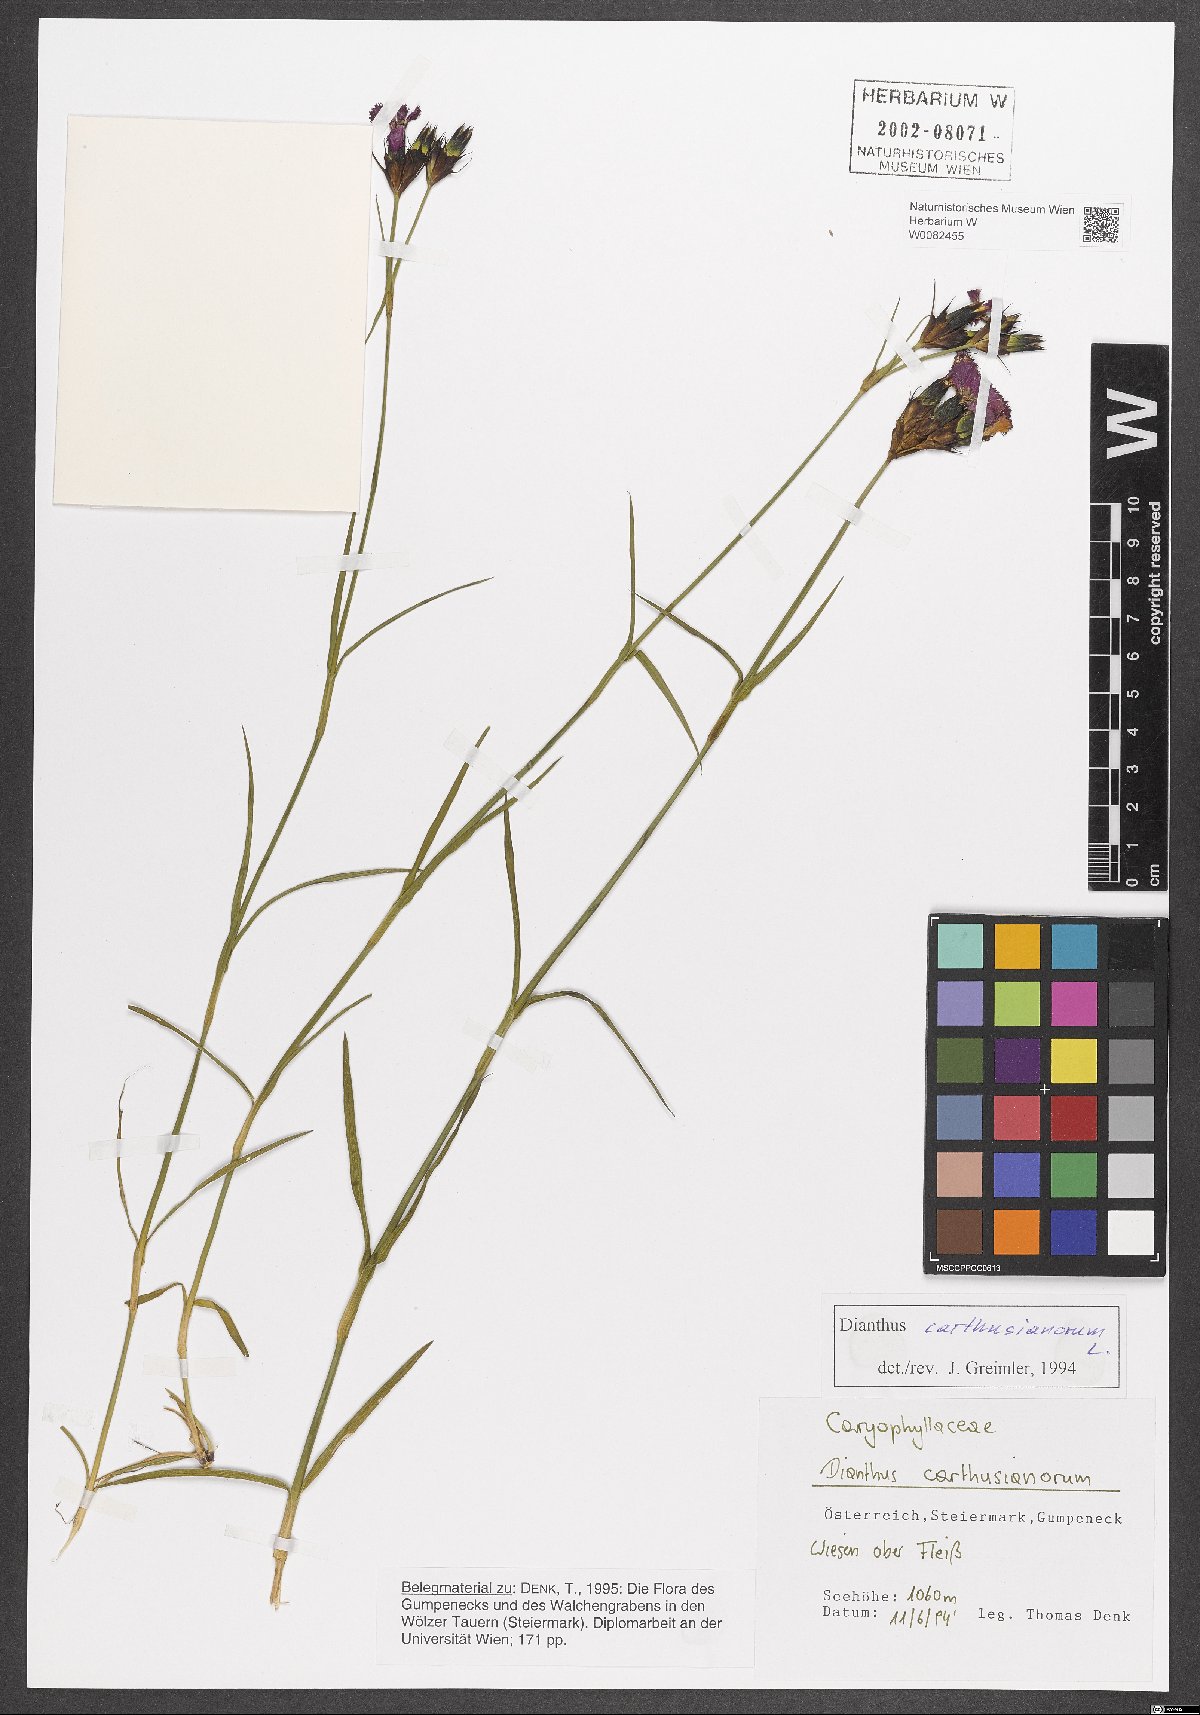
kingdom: Plantae
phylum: Tracheophyta
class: Magnoliopsida
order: Caryophyllales
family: Caryophyllaceae
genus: Dianthus
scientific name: Dianthus carthusianorum
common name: Carthusian pink
